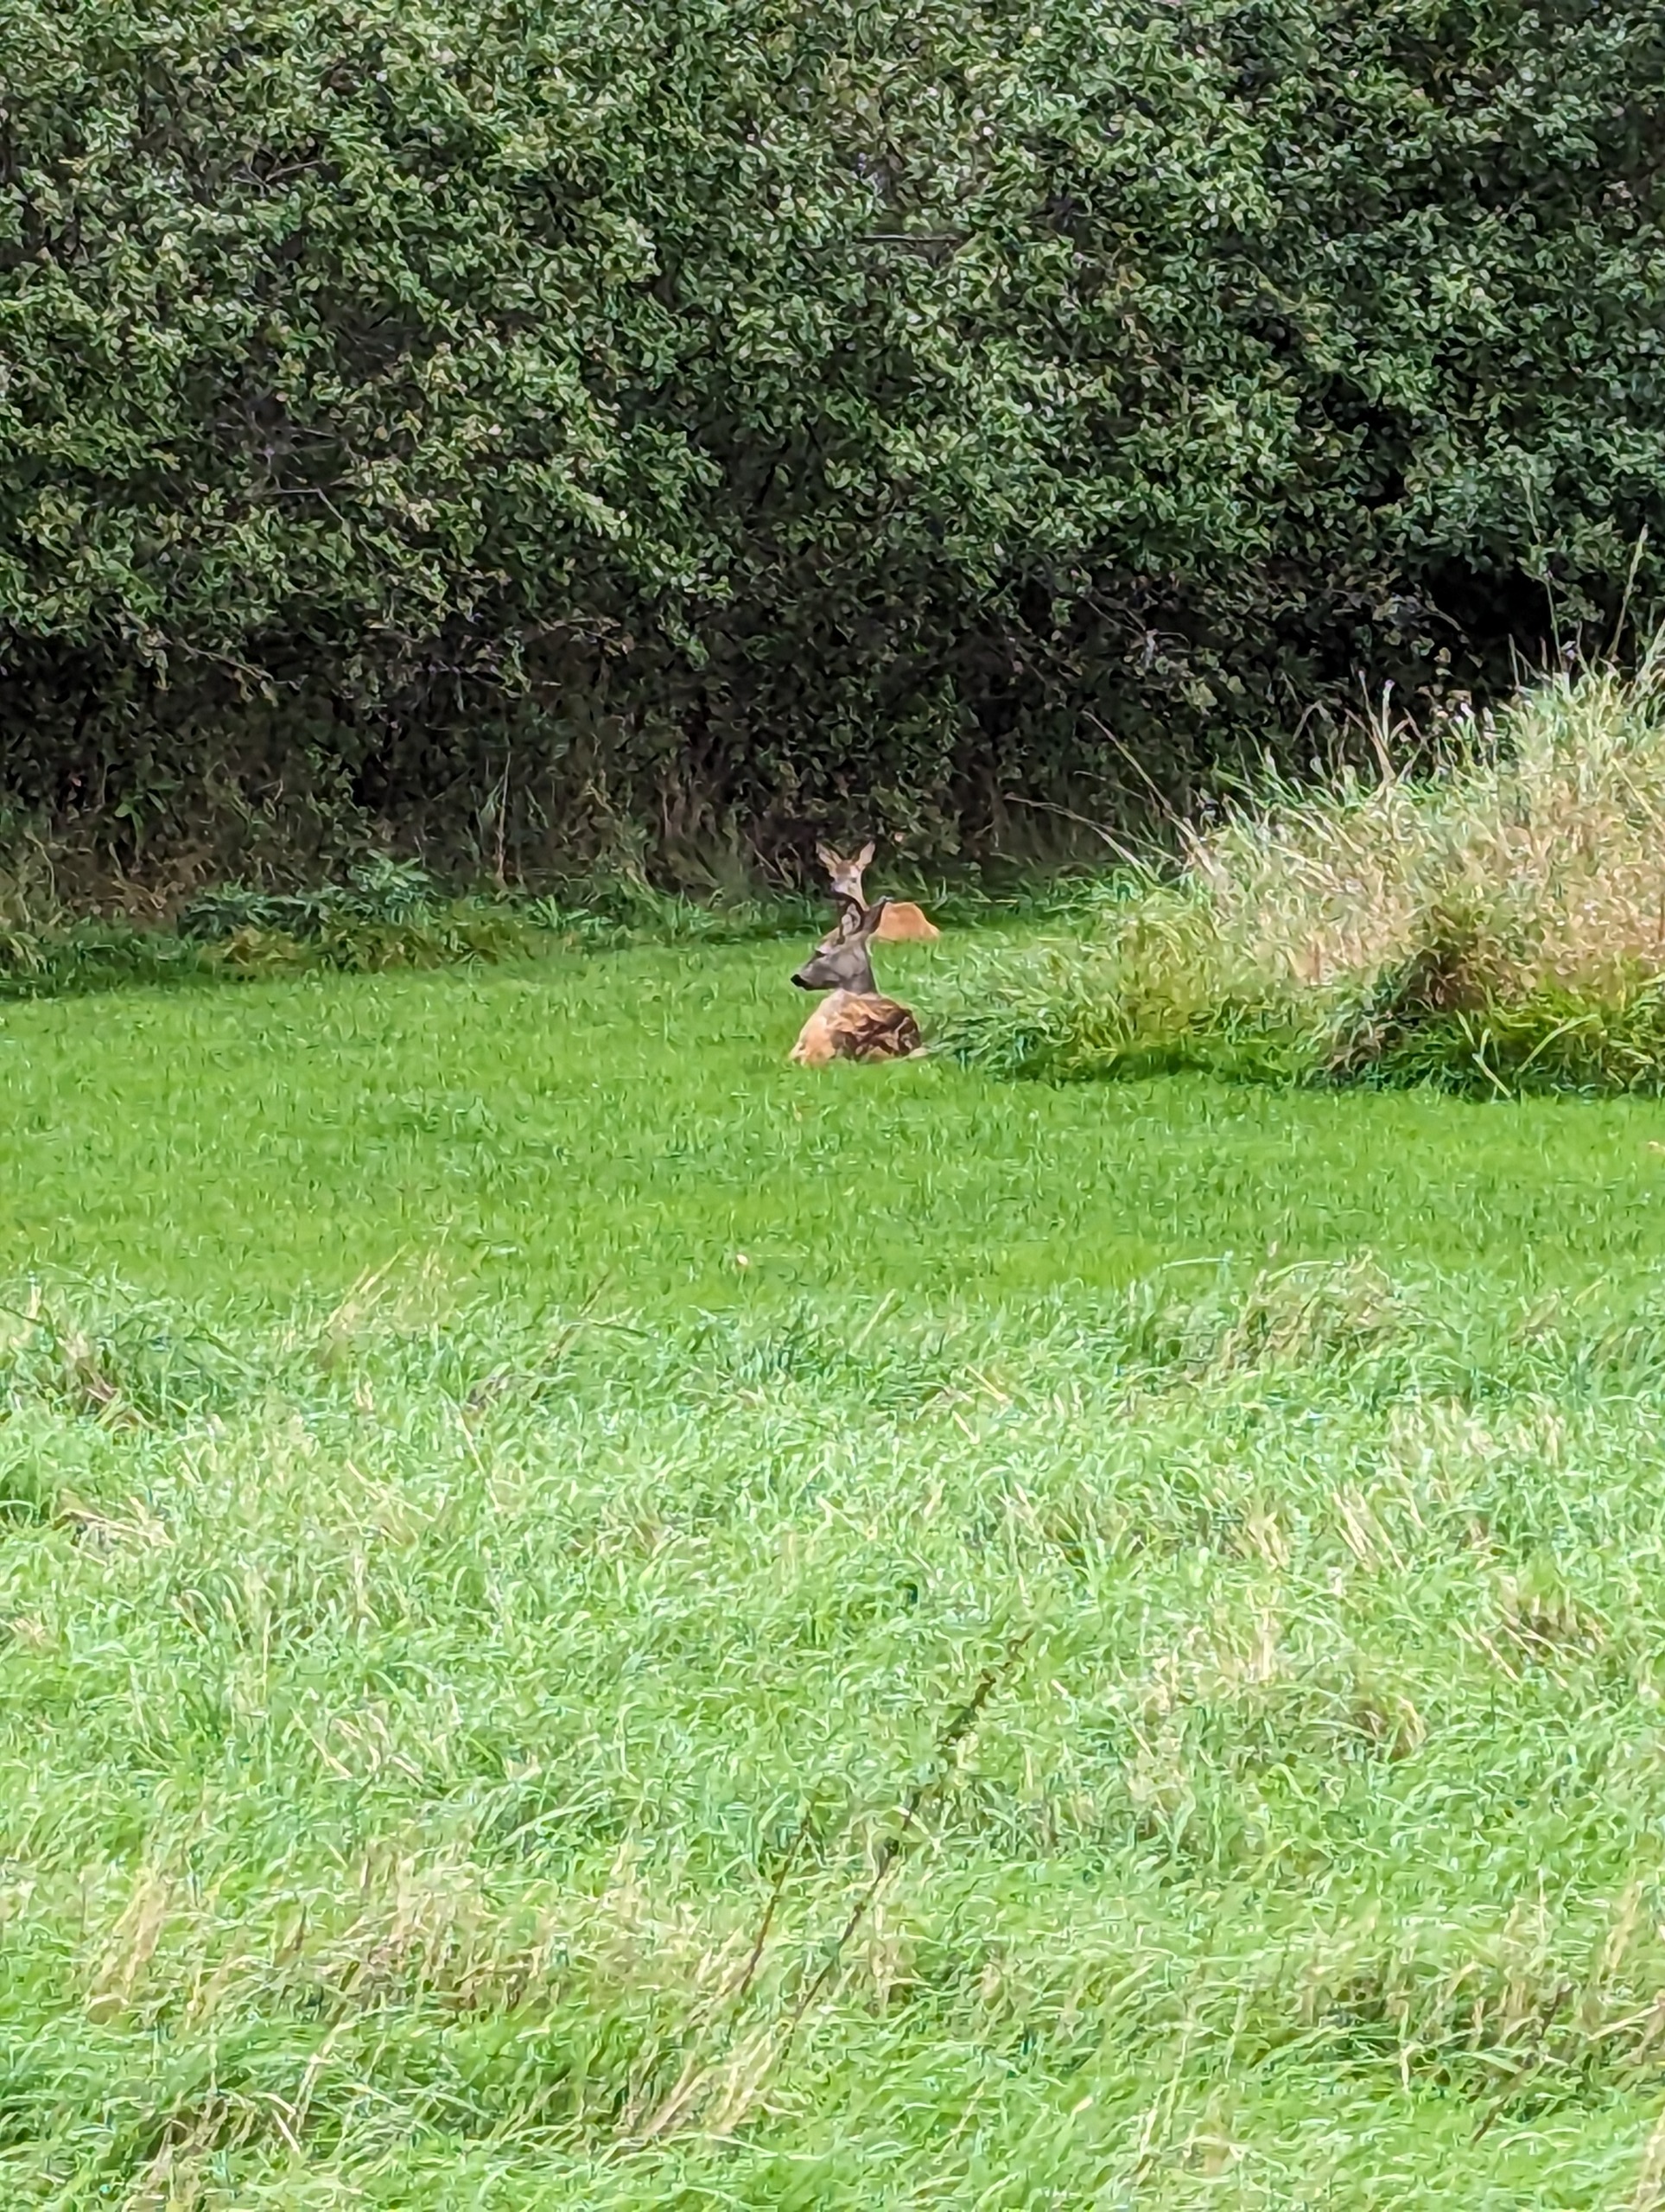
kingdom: Animalia
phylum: Chordata
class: Mammalia
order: Artiodactyla
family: Cervidae
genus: Capreolus
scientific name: Capreolus capreolus
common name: Rådyr
